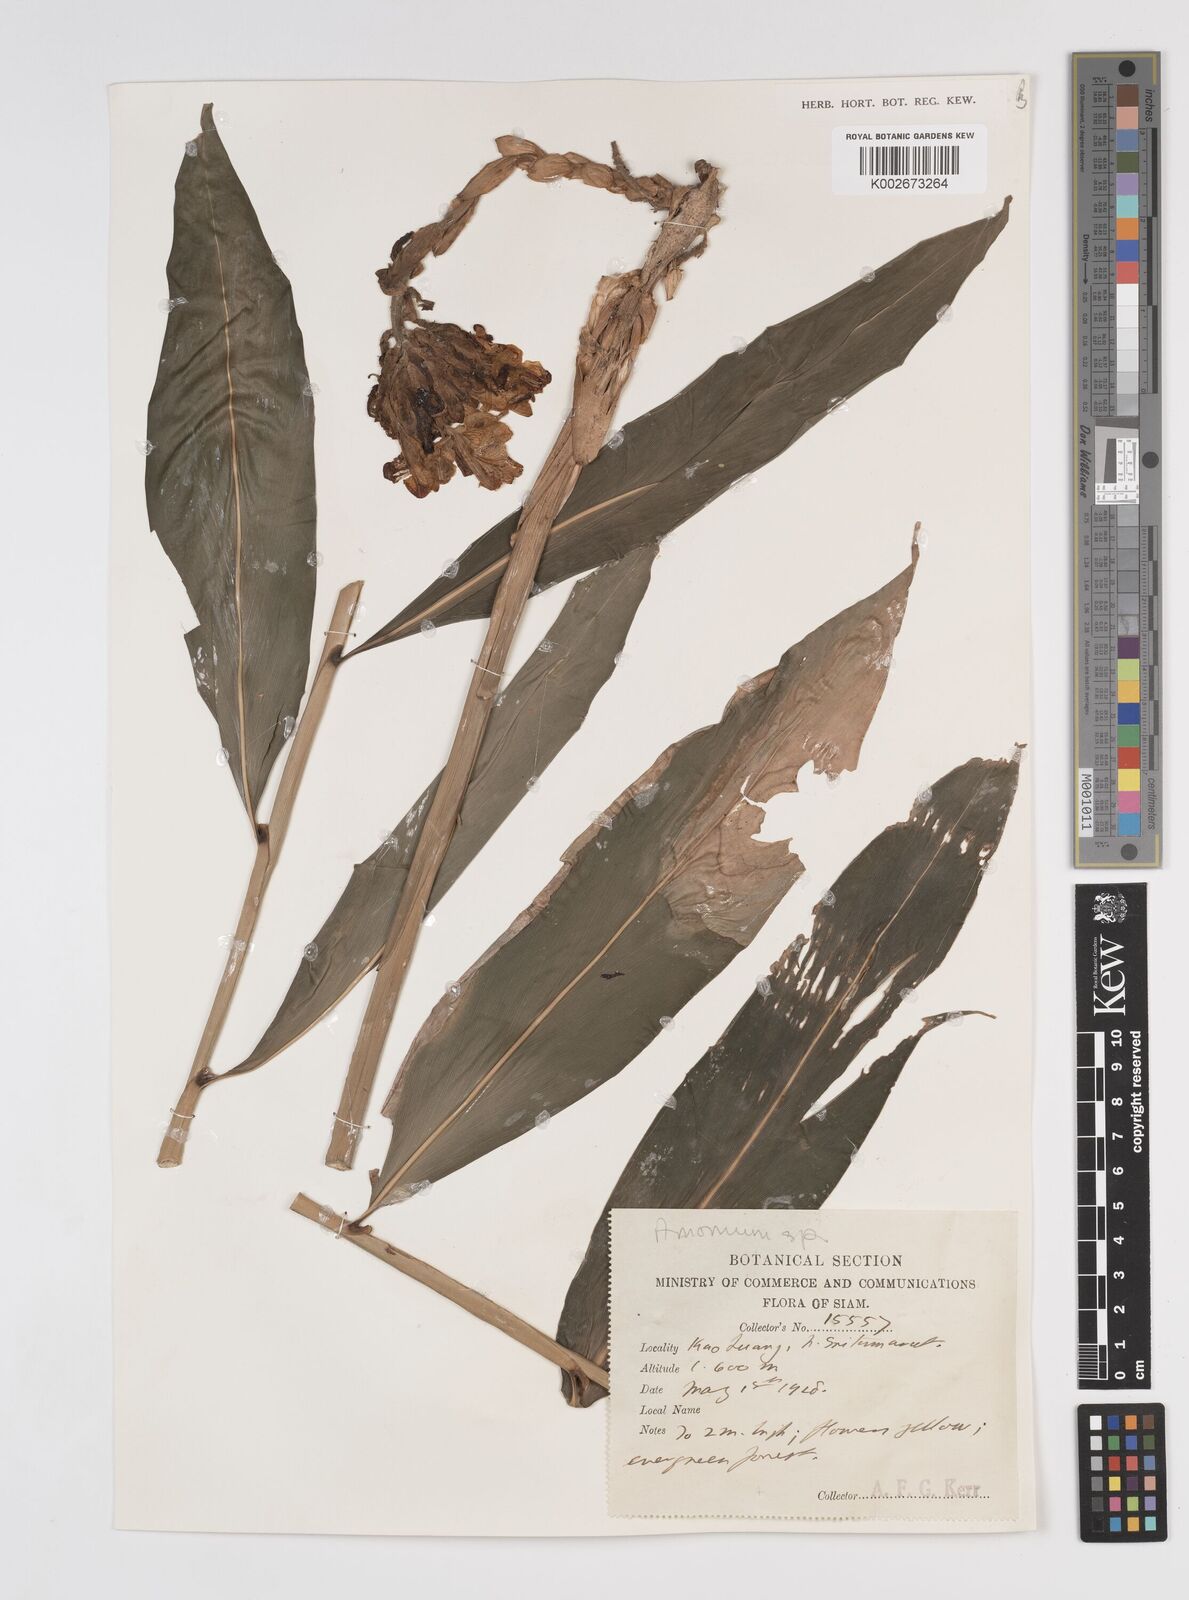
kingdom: Plantae
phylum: Tracheophyta
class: Liliopsida
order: Zingiberales
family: Zingiberaceae
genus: Amomum
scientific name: Amomum
